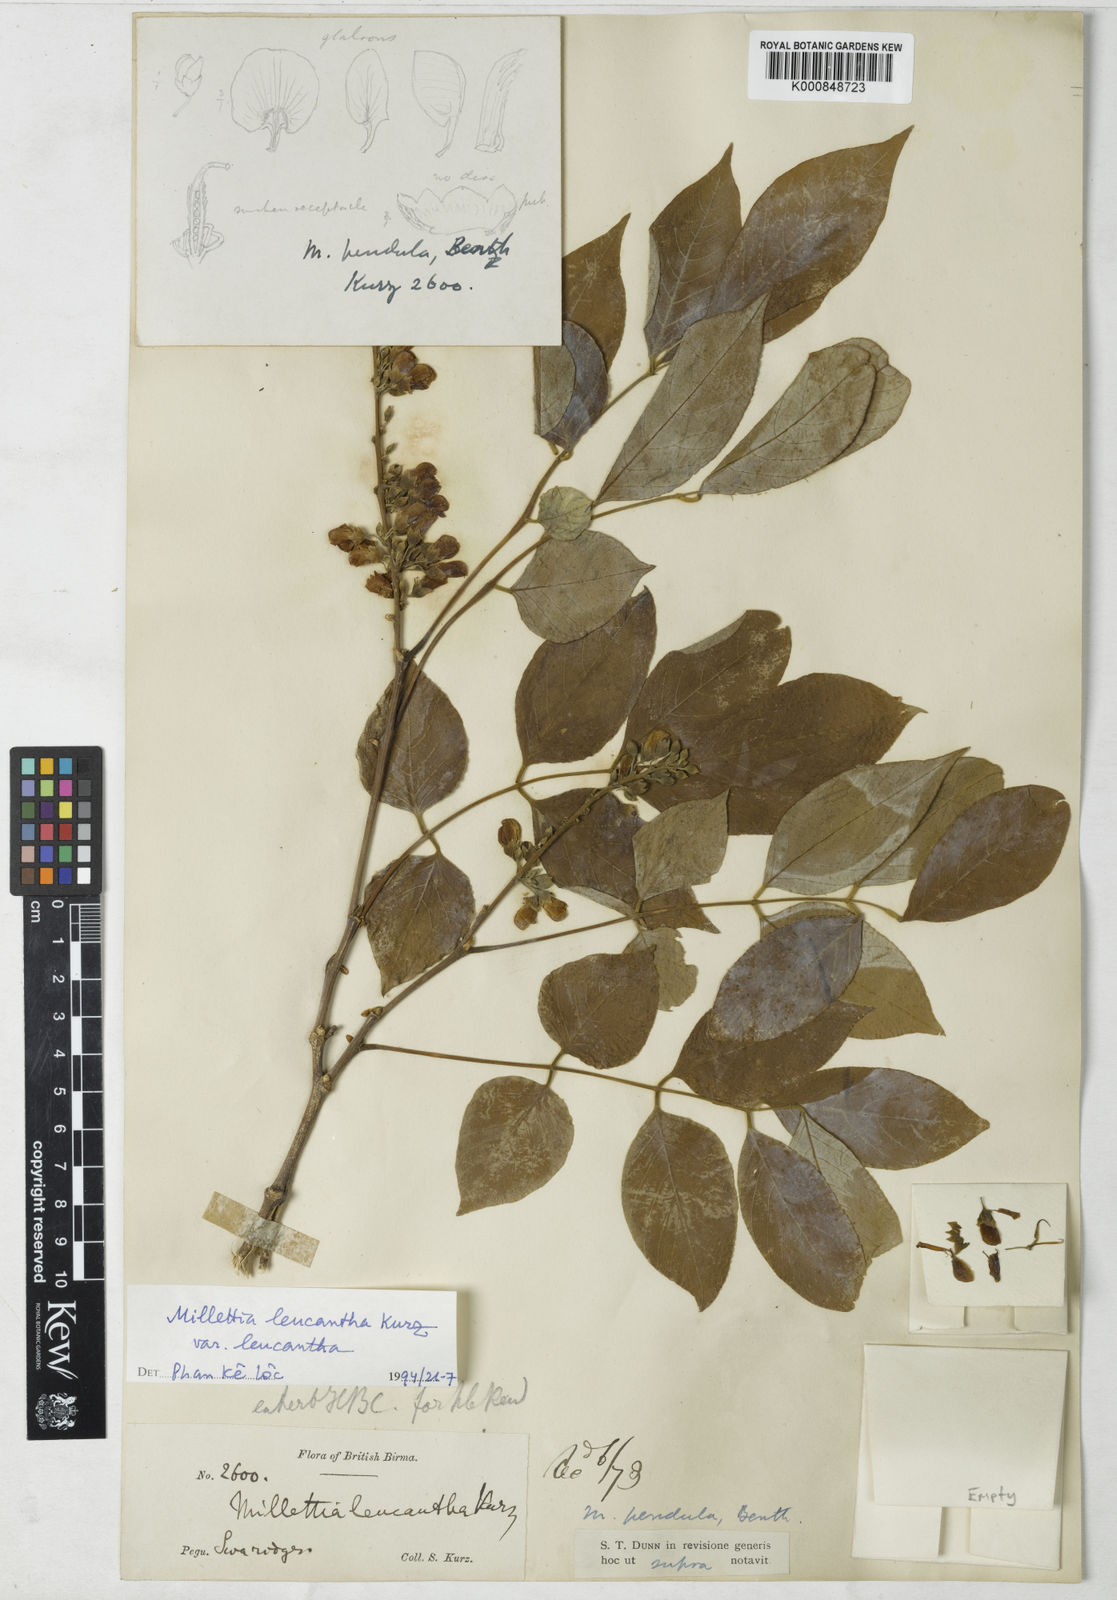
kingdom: Plantae
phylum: Tracheophyta
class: Magnoliopsida
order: Fabales
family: Fabaceae
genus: Imbralyx
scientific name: Imbralyx leucanthus
